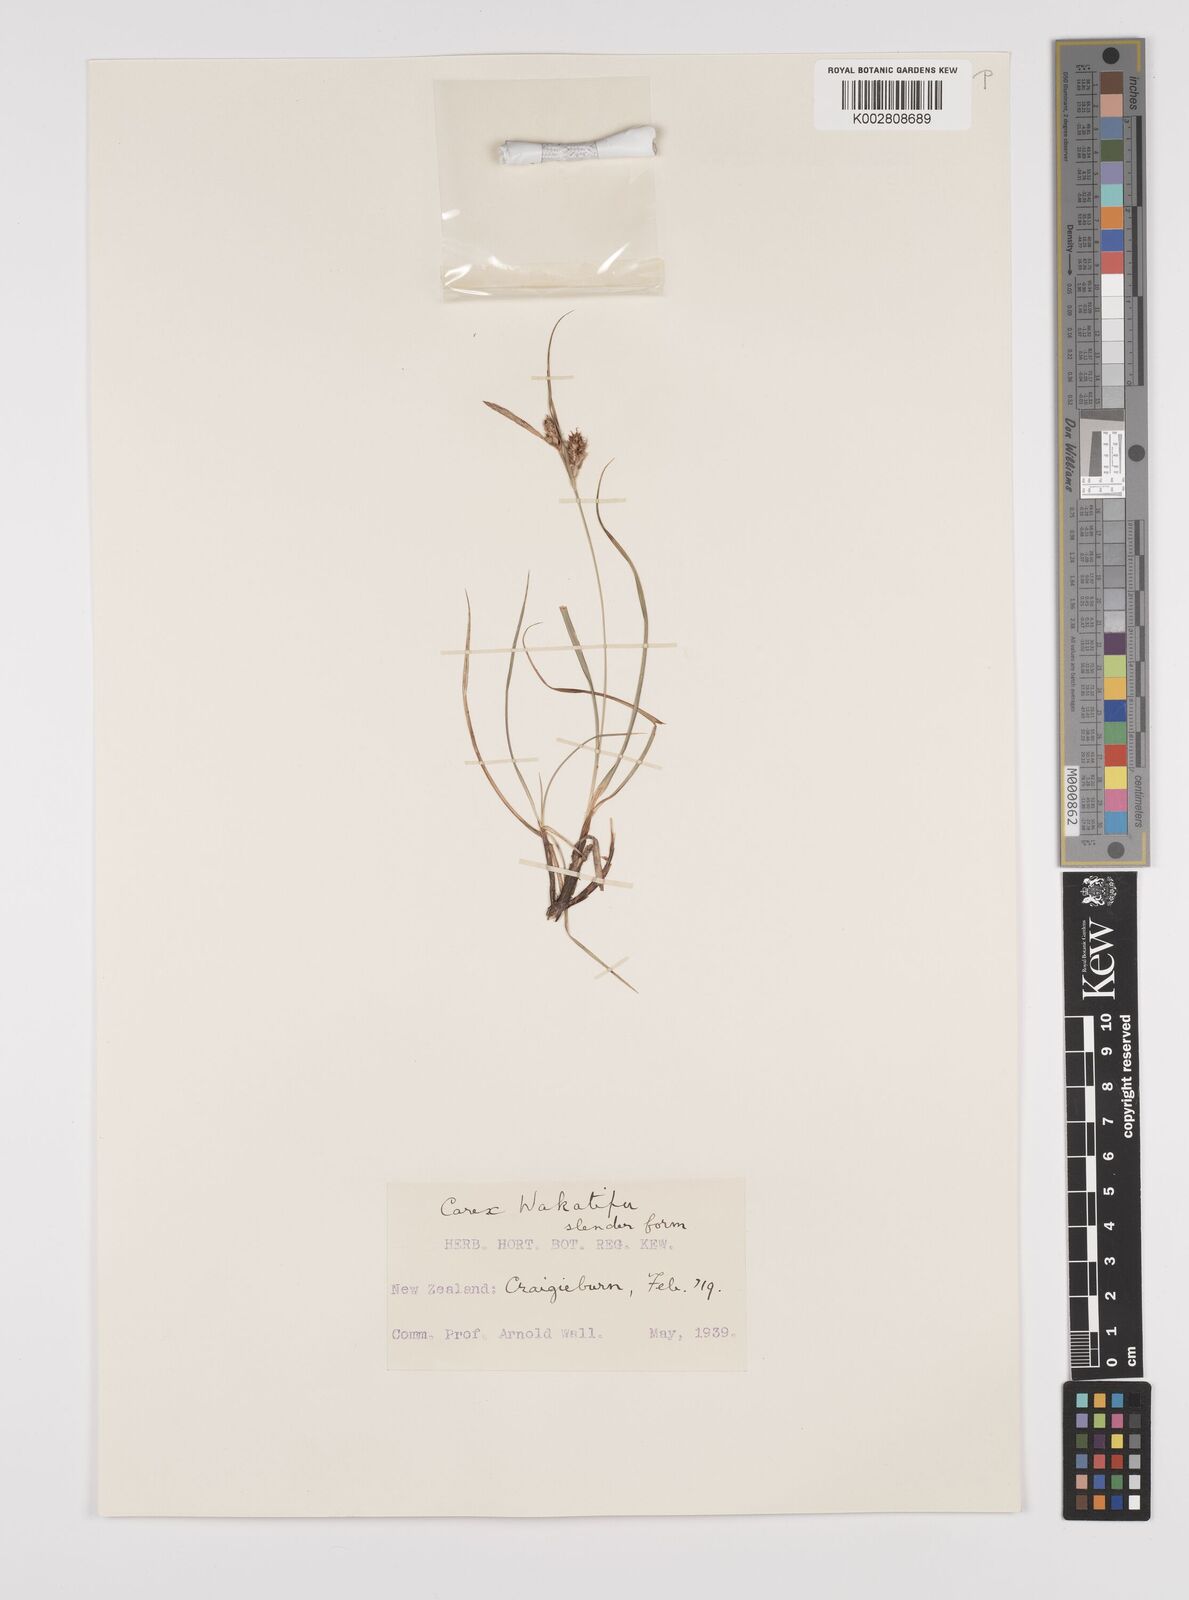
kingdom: Plantae
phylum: Tracheophyta
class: Liliopsida
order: Poales
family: Cyperaceae
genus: Carex
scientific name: Carex wakatipu
